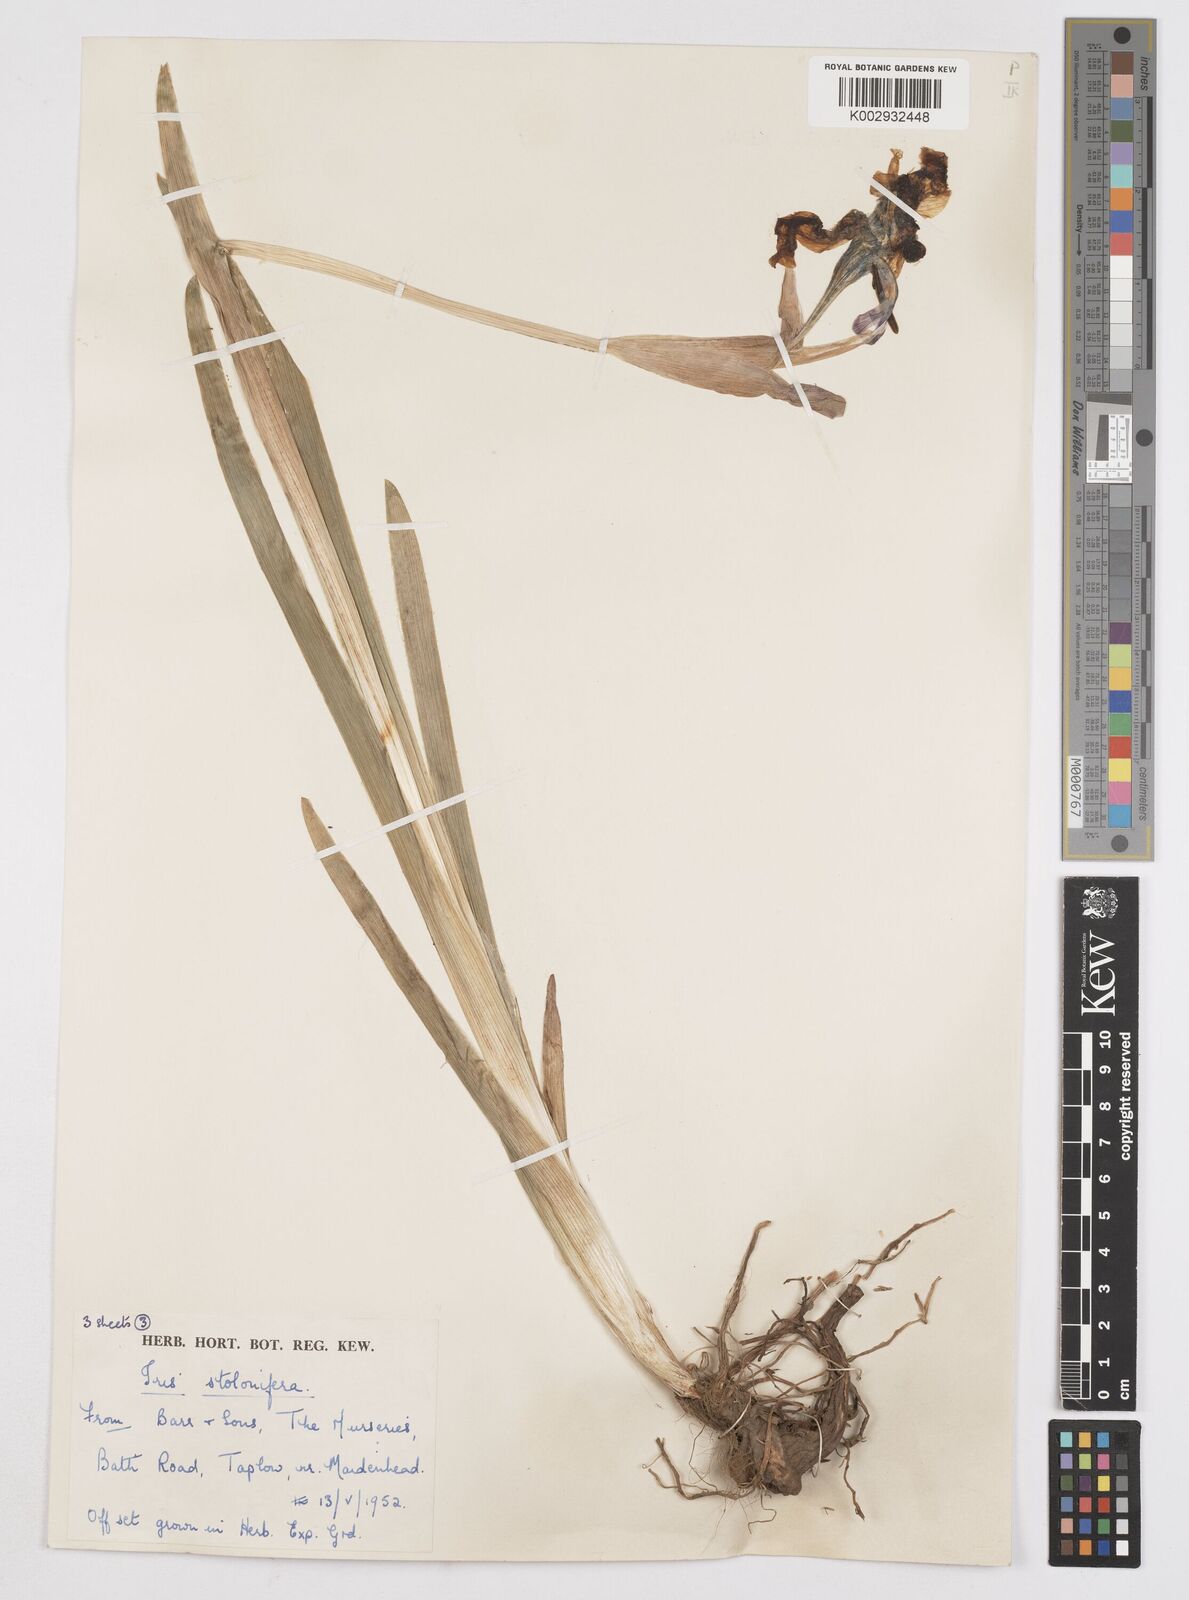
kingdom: Plantae
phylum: Tracheophyta
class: Liliopsida
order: Asparagales
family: Iridaceae
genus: Iris
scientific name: Iris stolonifera
